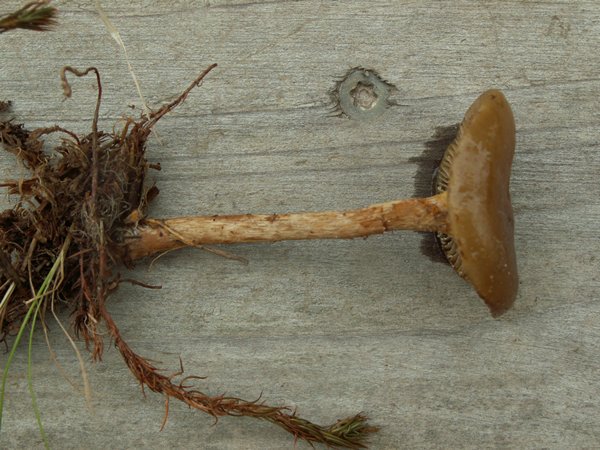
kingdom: Fungi
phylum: Basidiomycota
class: Agaricomycetes
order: Agaricales
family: Strophariaceae
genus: Hypholoma
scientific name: Hypholoma myosotis
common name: slimet svovlhat
